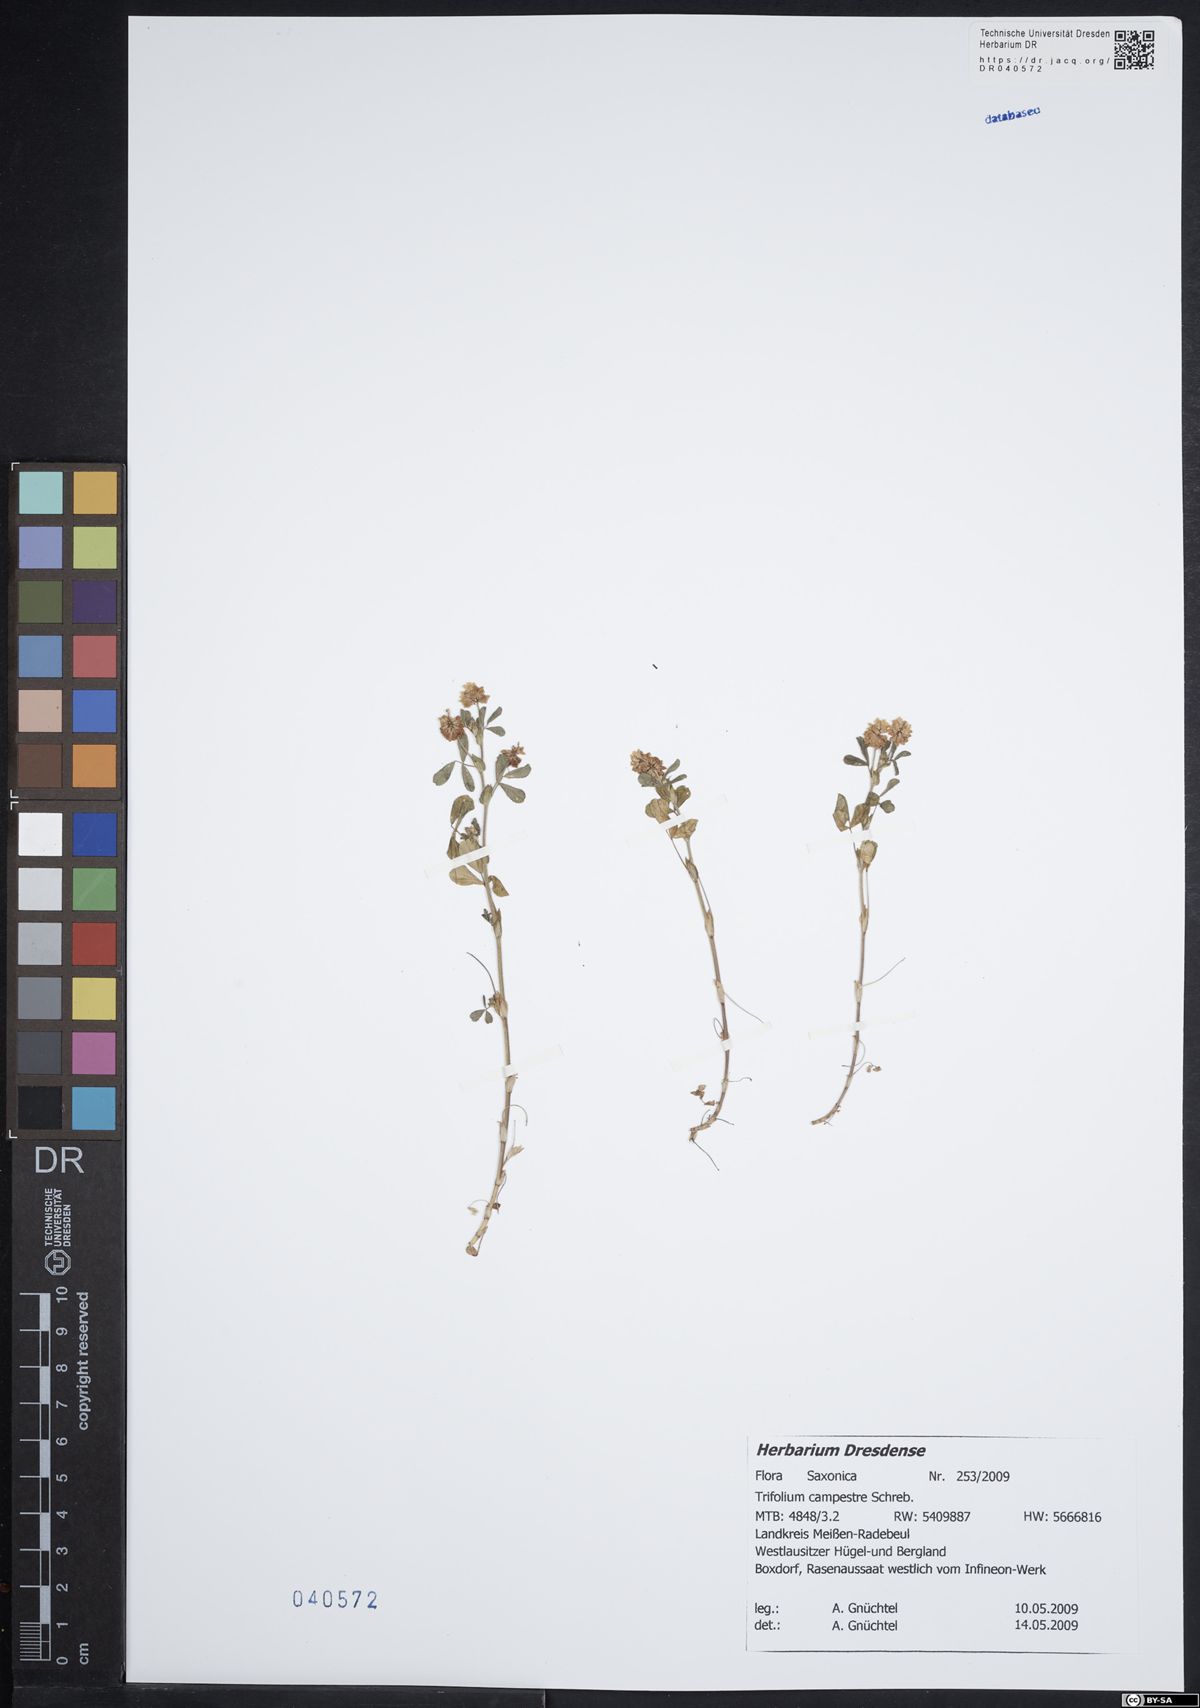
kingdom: Plantae
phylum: Tracheophyta
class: Magnoliopsida
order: Fabales
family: Fabaceae
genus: Trifolium
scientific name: Trifolium campestre
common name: Field clover
